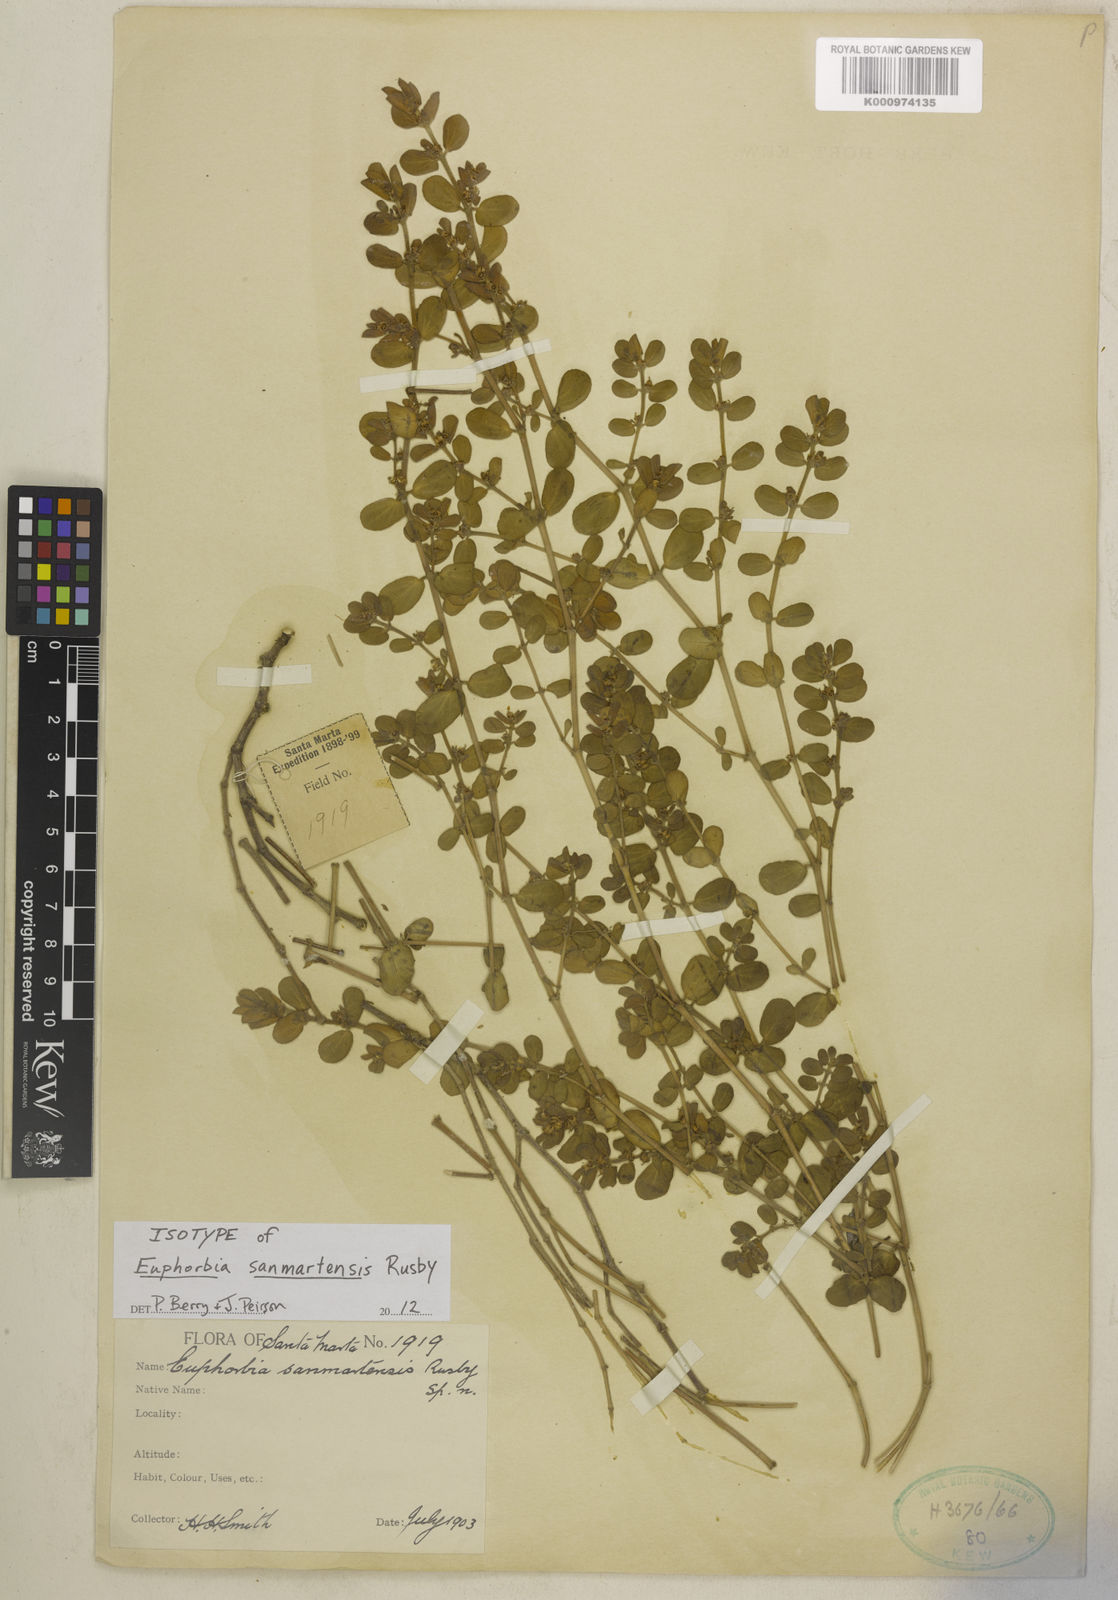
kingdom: Plantae
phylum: Tracheophyta
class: Magnoliopsida
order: Ericales
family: Primulaceae
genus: Cybianthus
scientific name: Cybianthus
